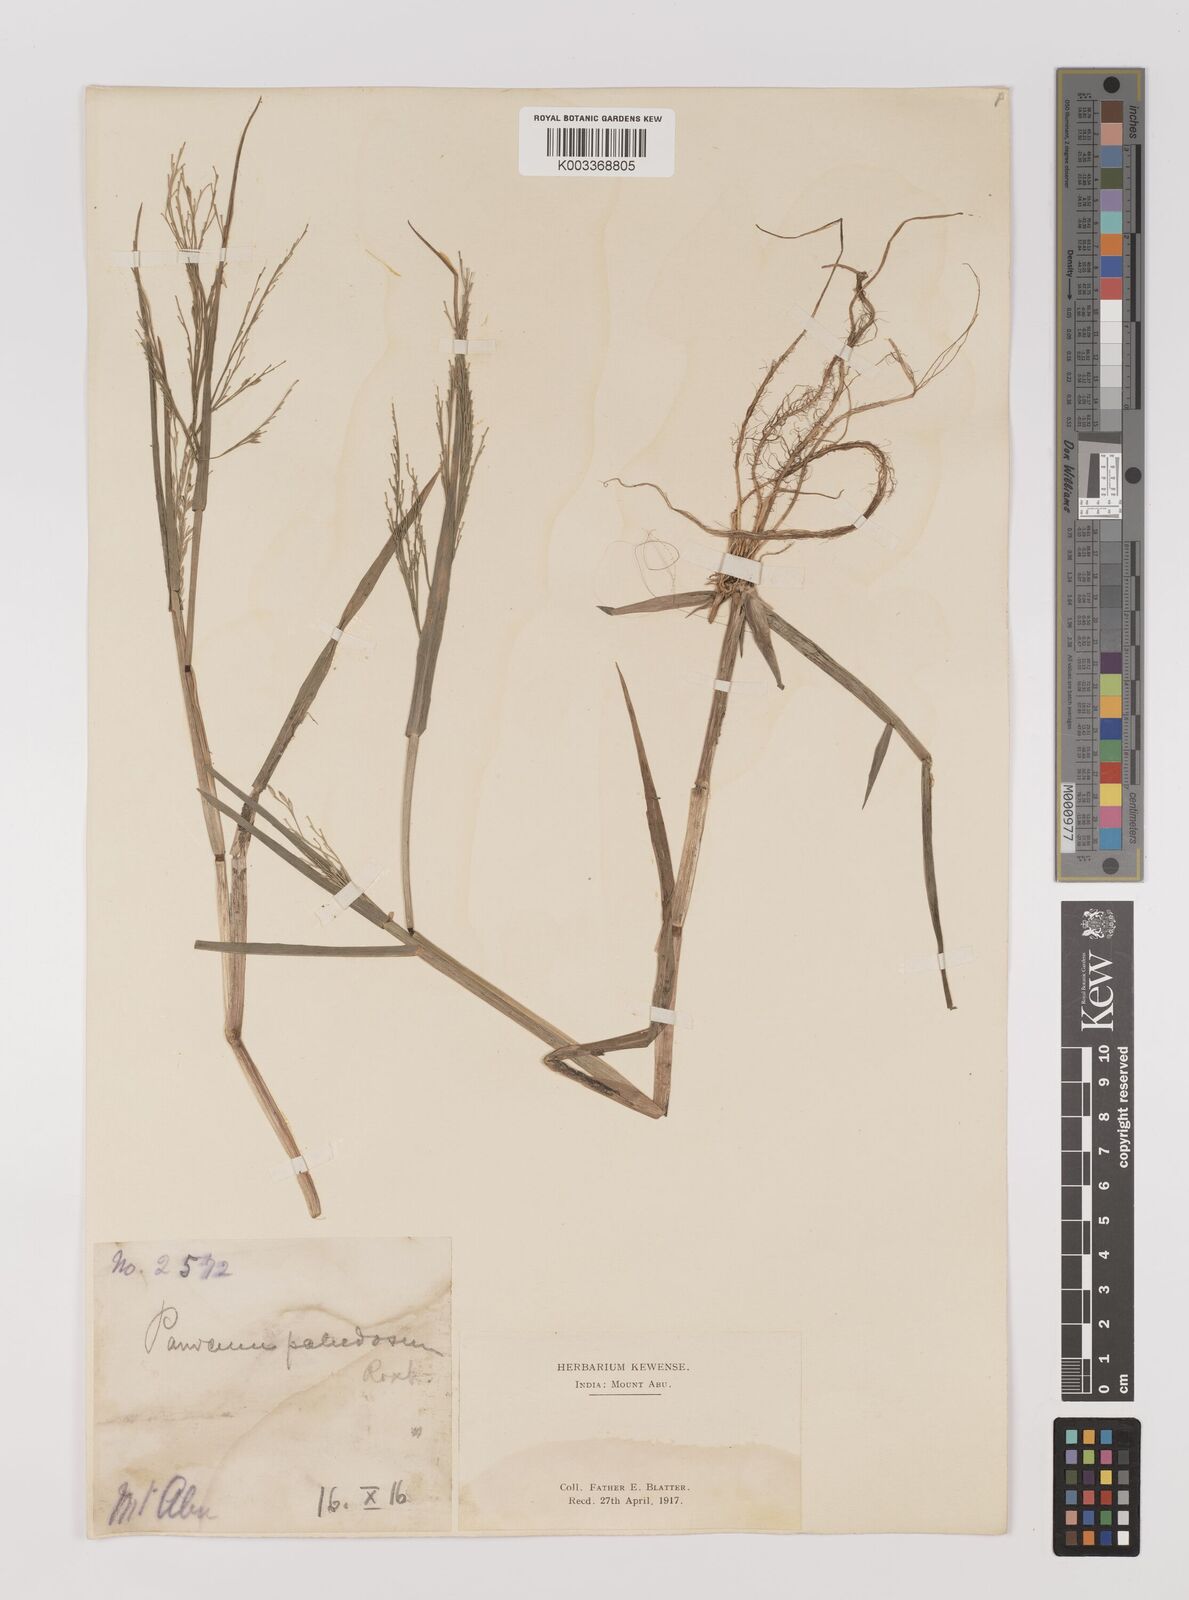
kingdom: Plantae
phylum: Tracheophyta
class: Liliopsida
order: Poales
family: Poaceae
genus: Louisiella
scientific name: Louisiella paludosa
